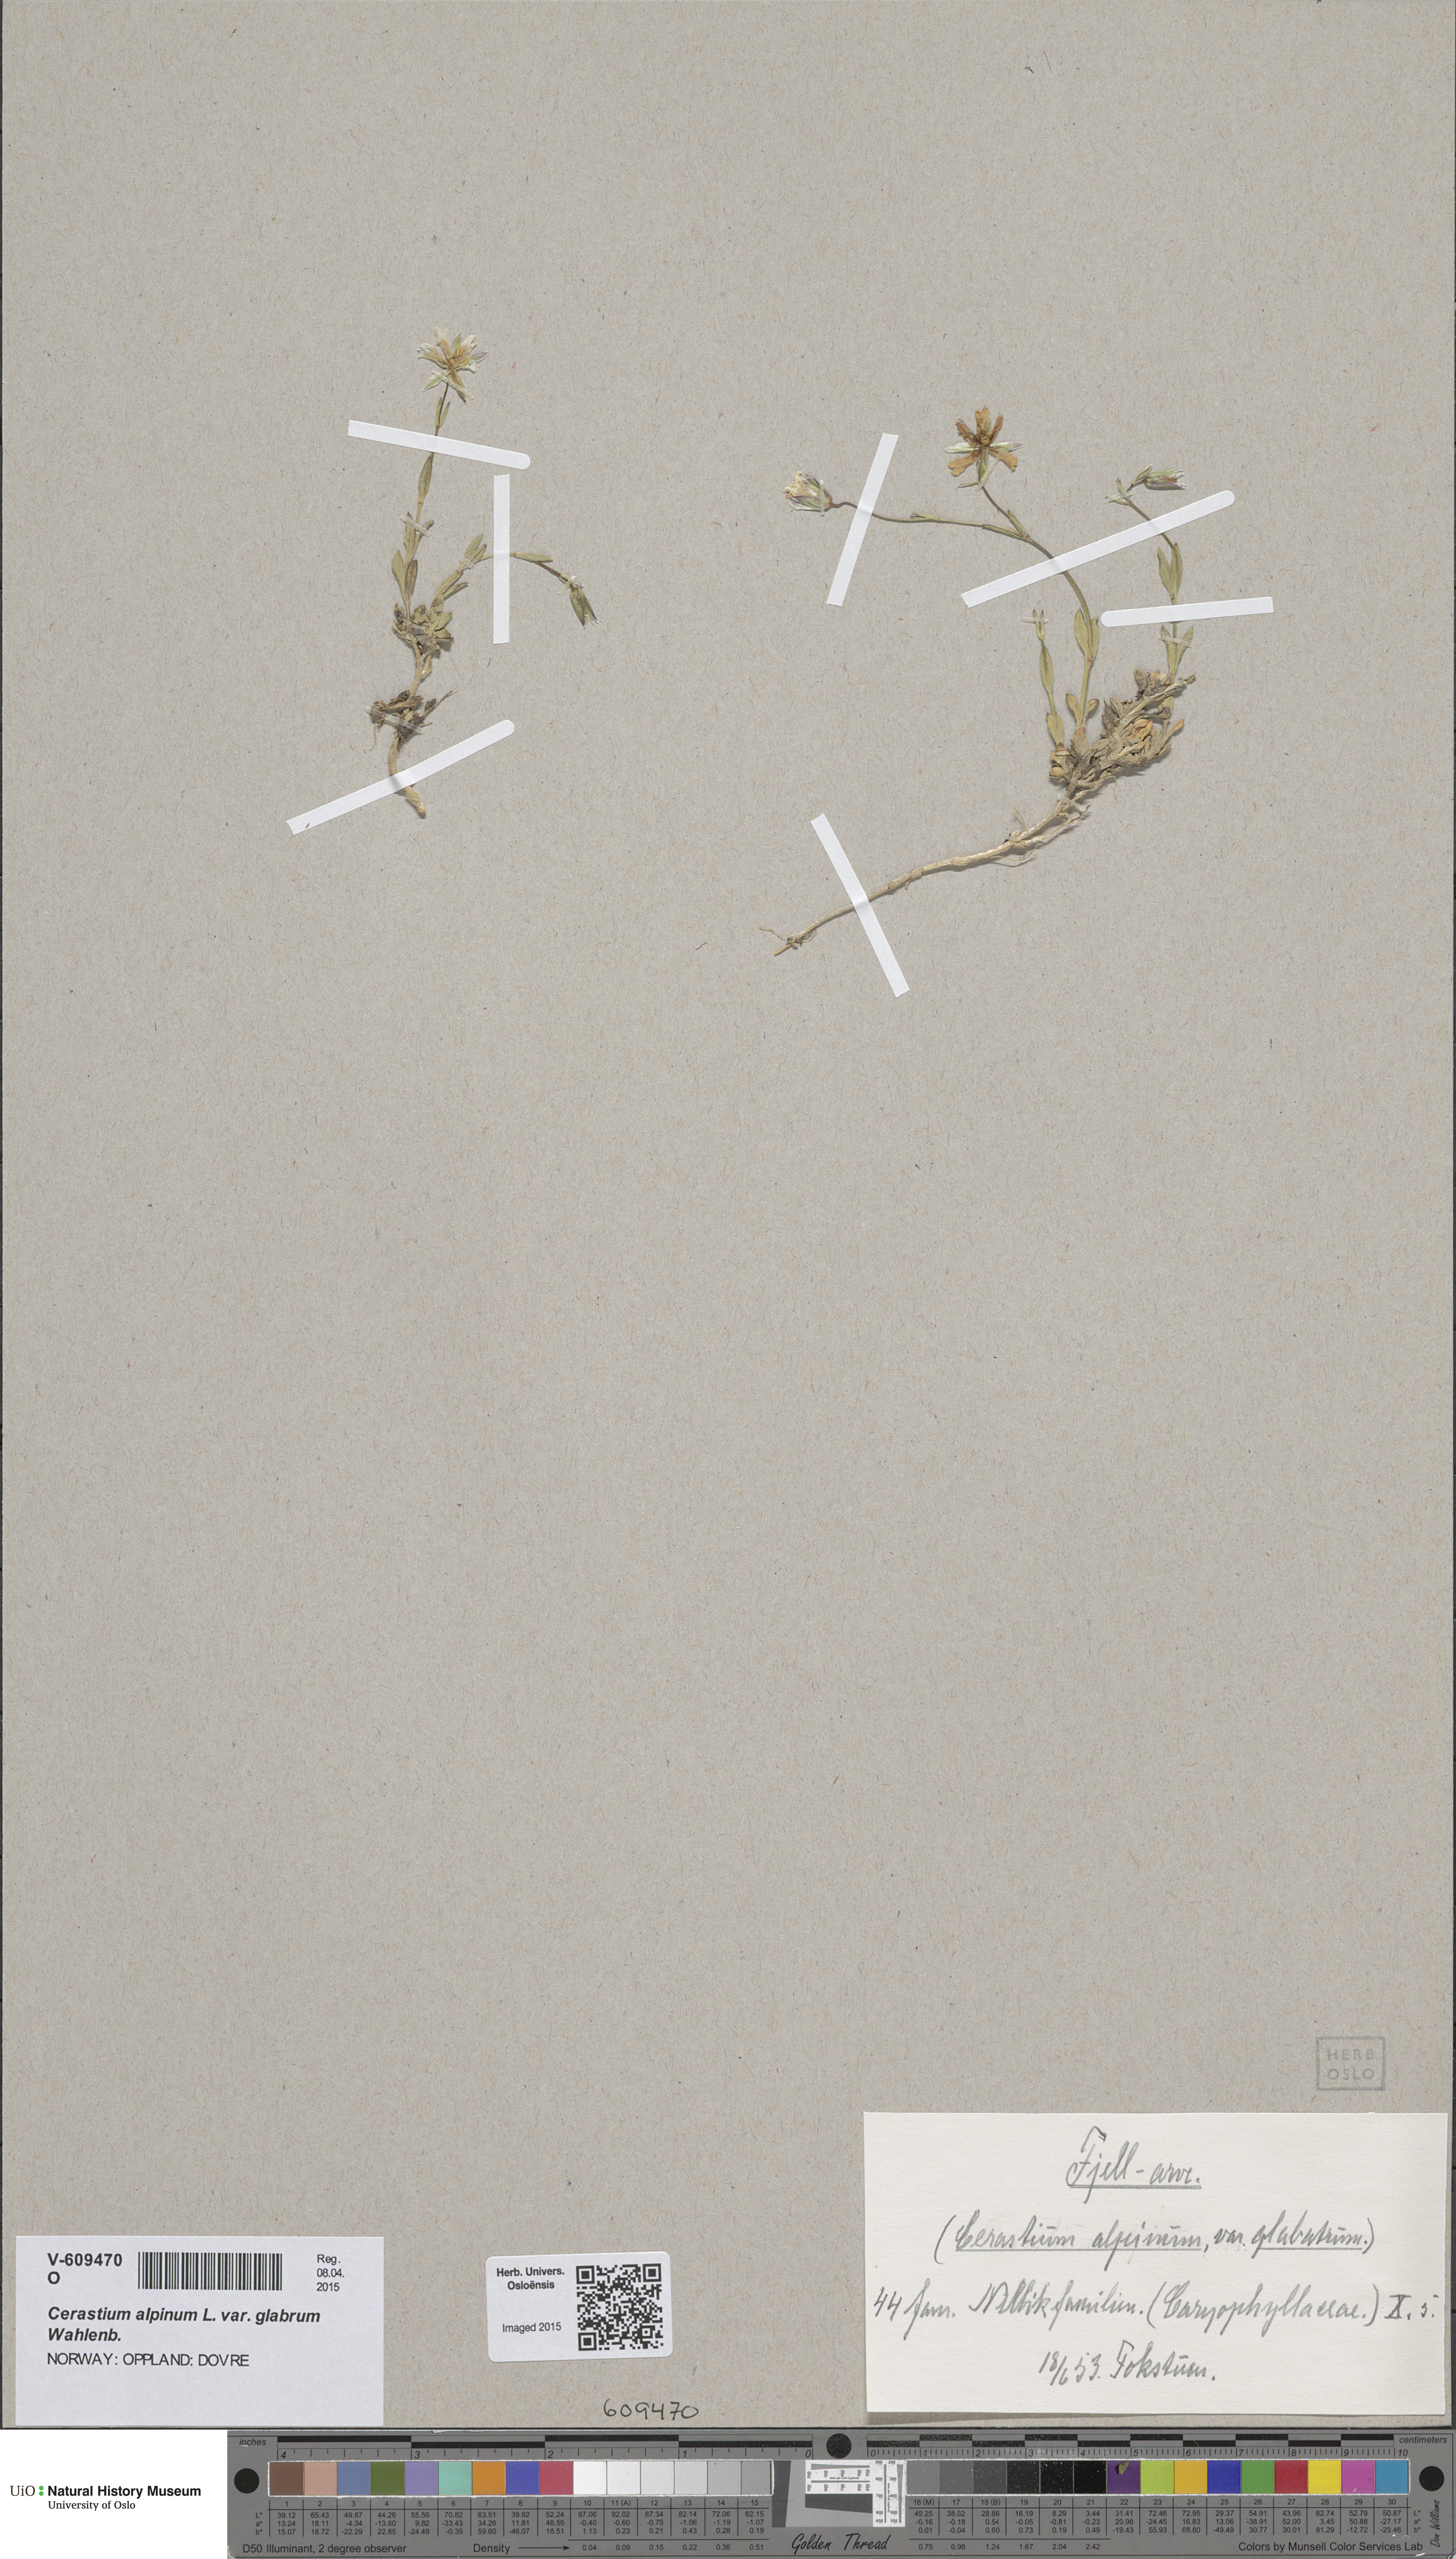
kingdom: Plantae
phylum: Tracheophyta
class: Magnoliopsida
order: Caryophyllales
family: Caryophyllaceae
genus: Cerastium
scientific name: Cerastium alpinum
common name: Alpine mouse-ear
